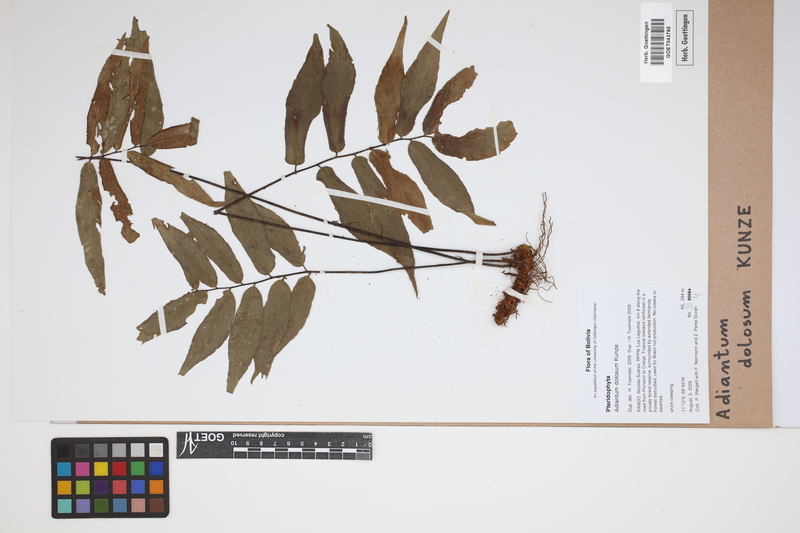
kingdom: Plantae
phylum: Tracheophyta
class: Polypodiopsida
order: Polypodiales
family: Pteridaceae
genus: Adiantum
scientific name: Adiantum dolosum
